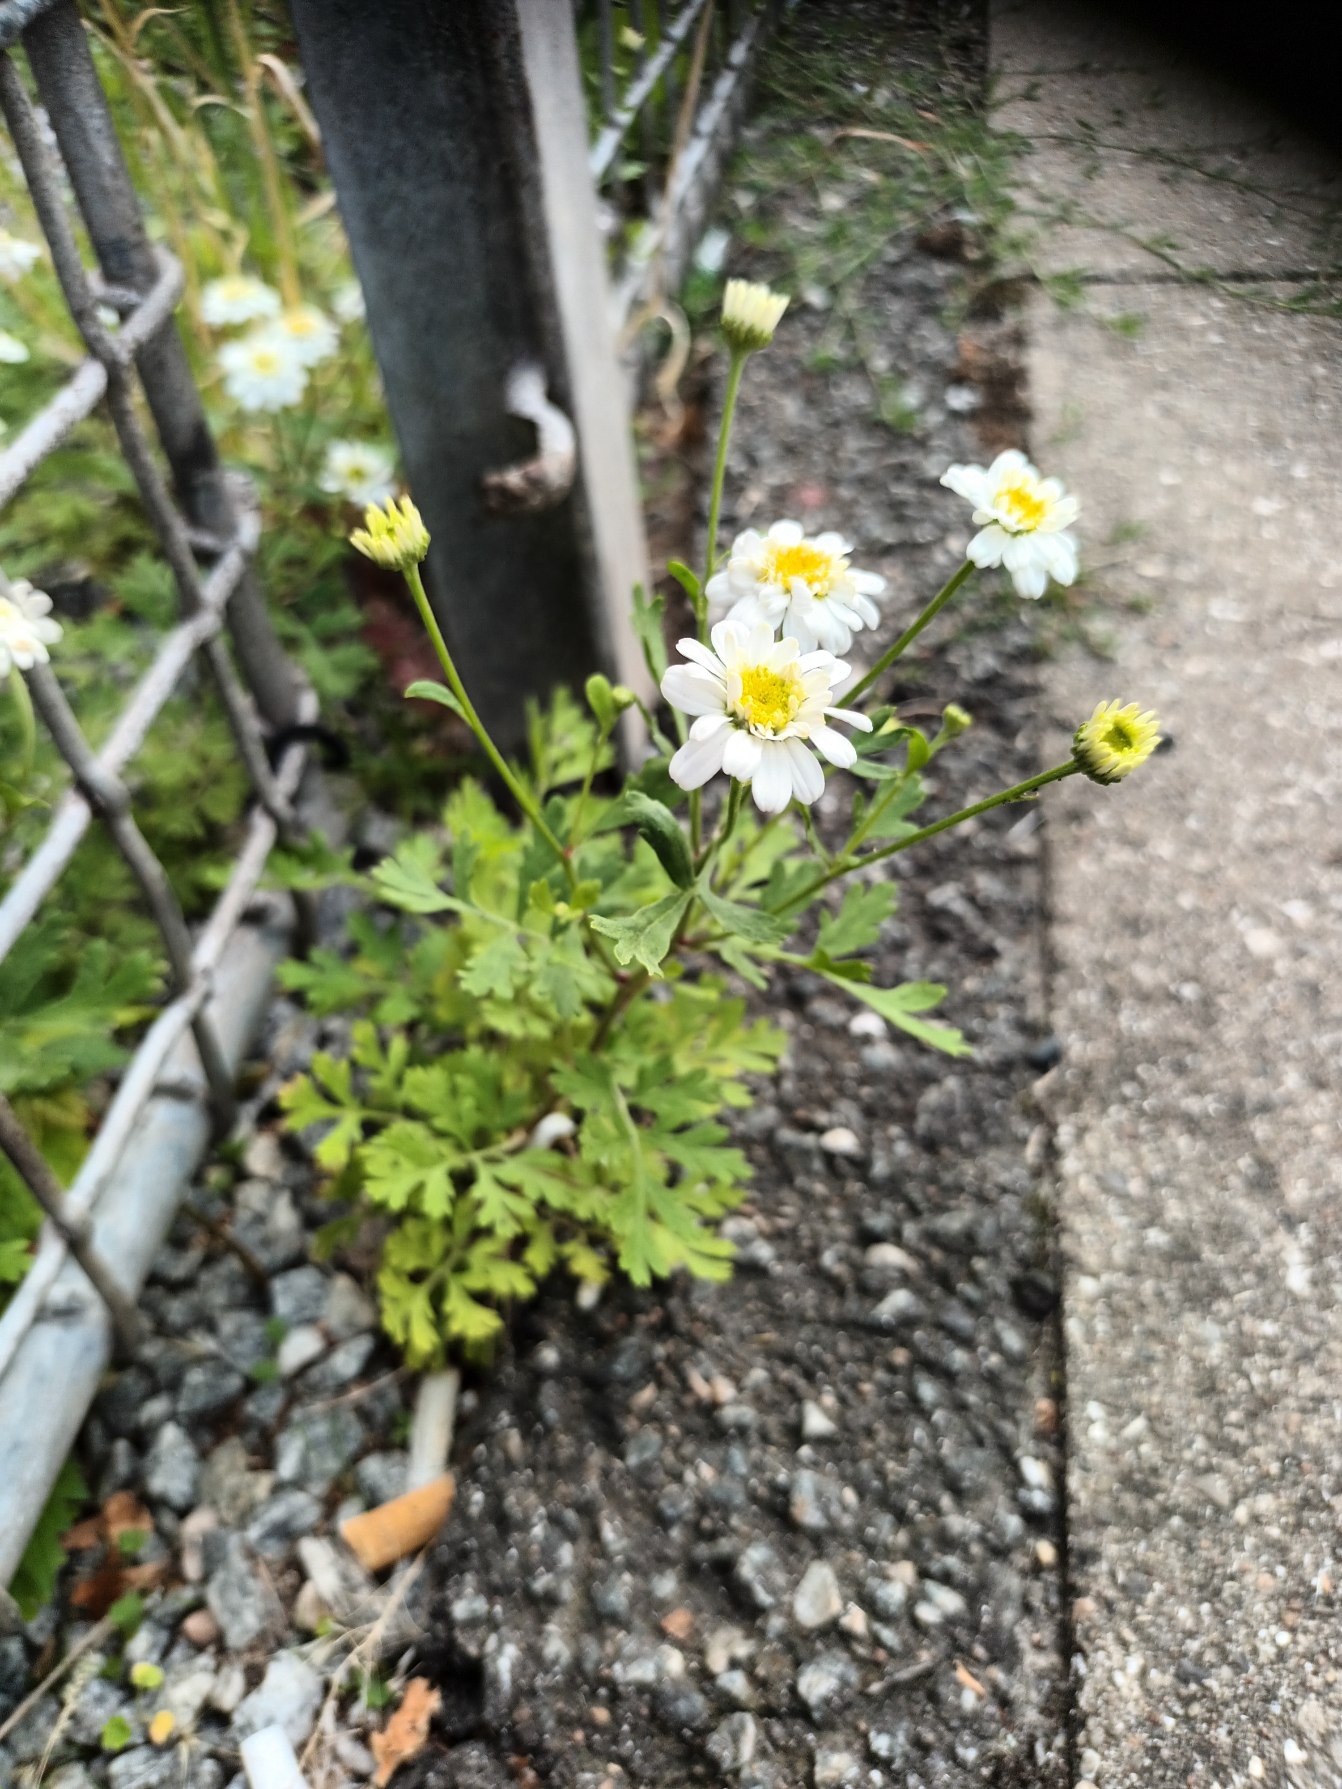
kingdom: Plantae
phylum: Tracheophyta
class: Magnoliopsida
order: Asterales
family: Asteraceae
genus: Tanacetum
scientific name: Tanacetum parthenium
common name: Matrem
